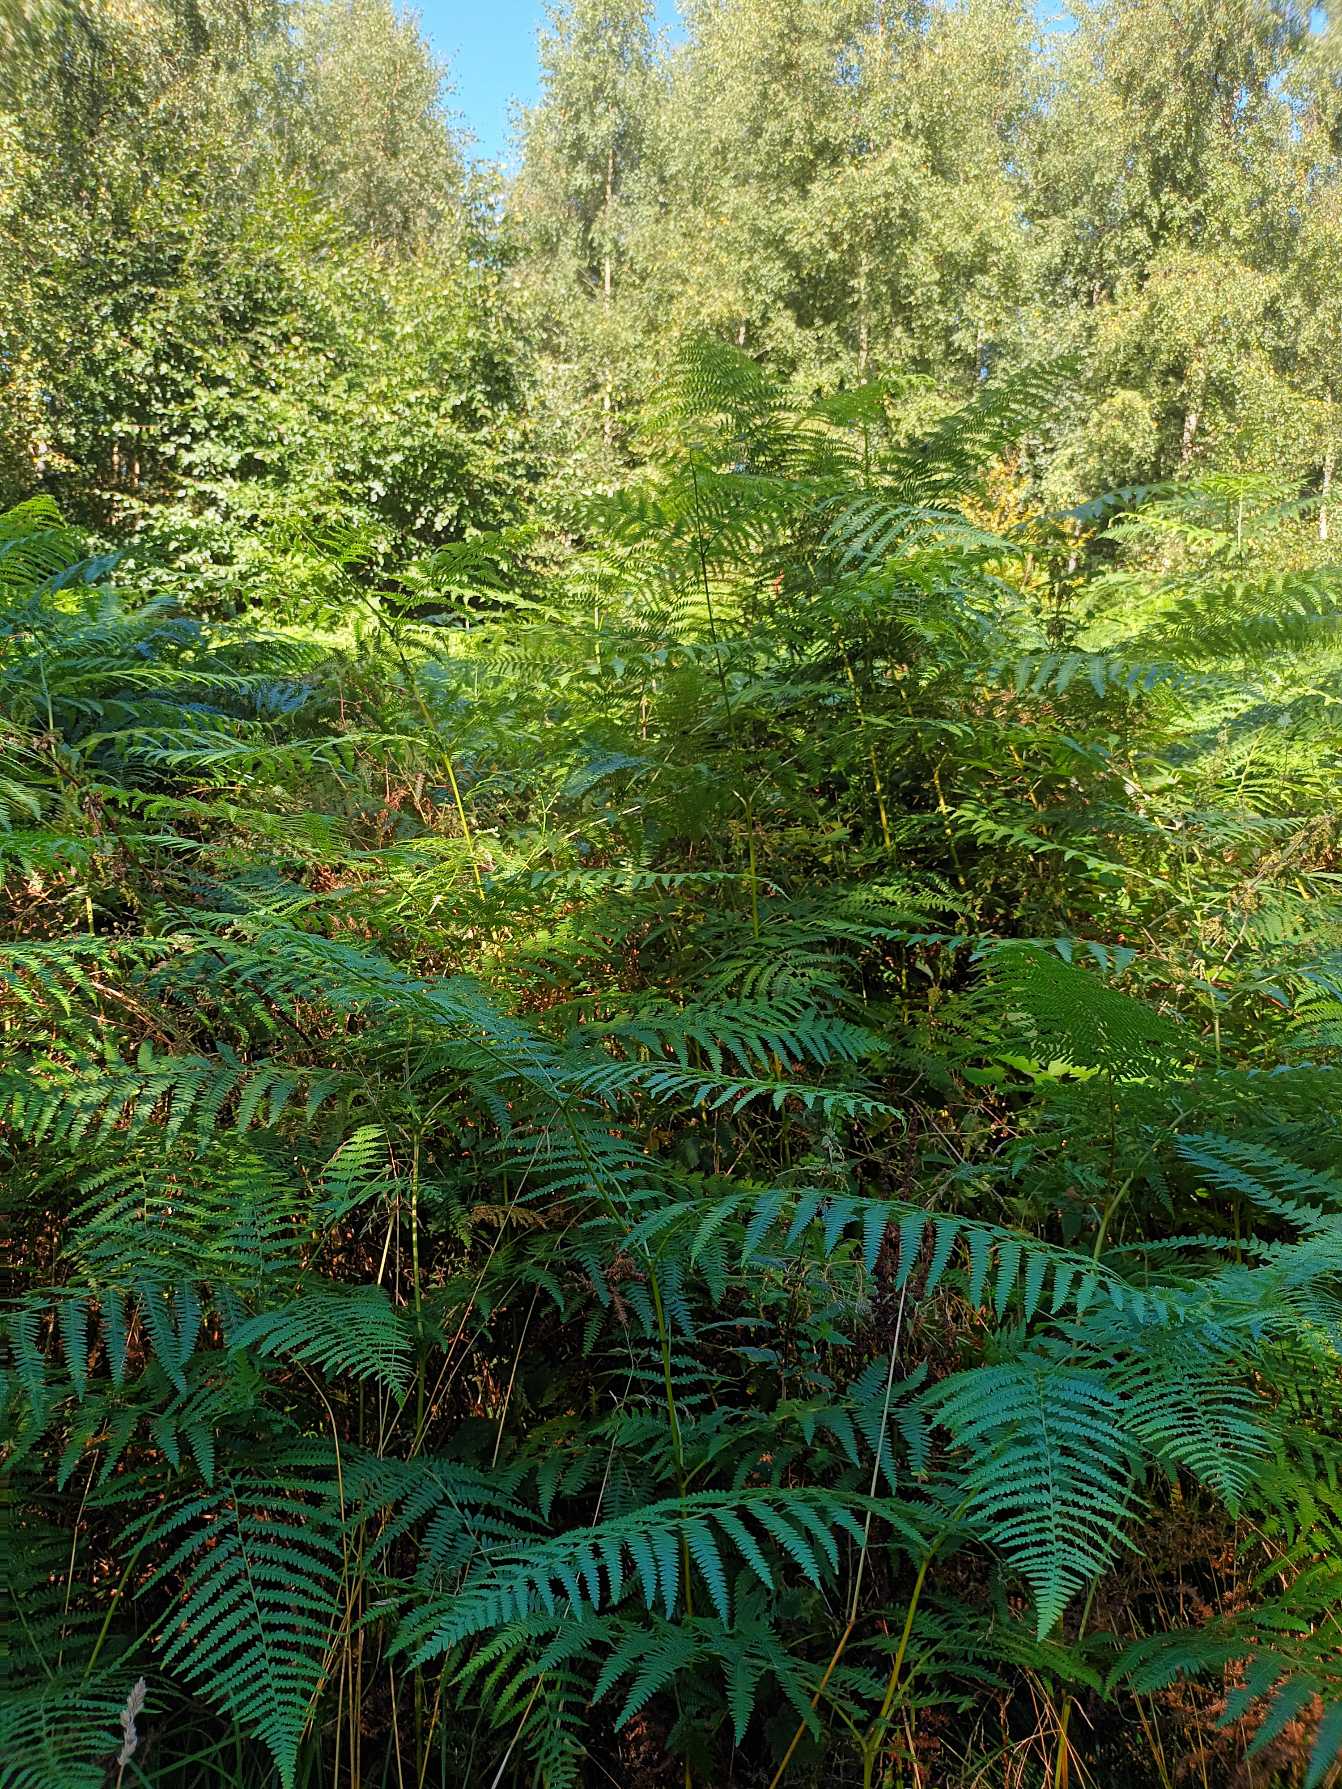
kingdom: Plantae
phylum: Tracheophyta
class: Polypodiopsida
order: Polypodiales
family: Dennstaedtiaceae
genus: Pteridium
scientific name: Pteridium aquilinum
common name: Ørnebregne
